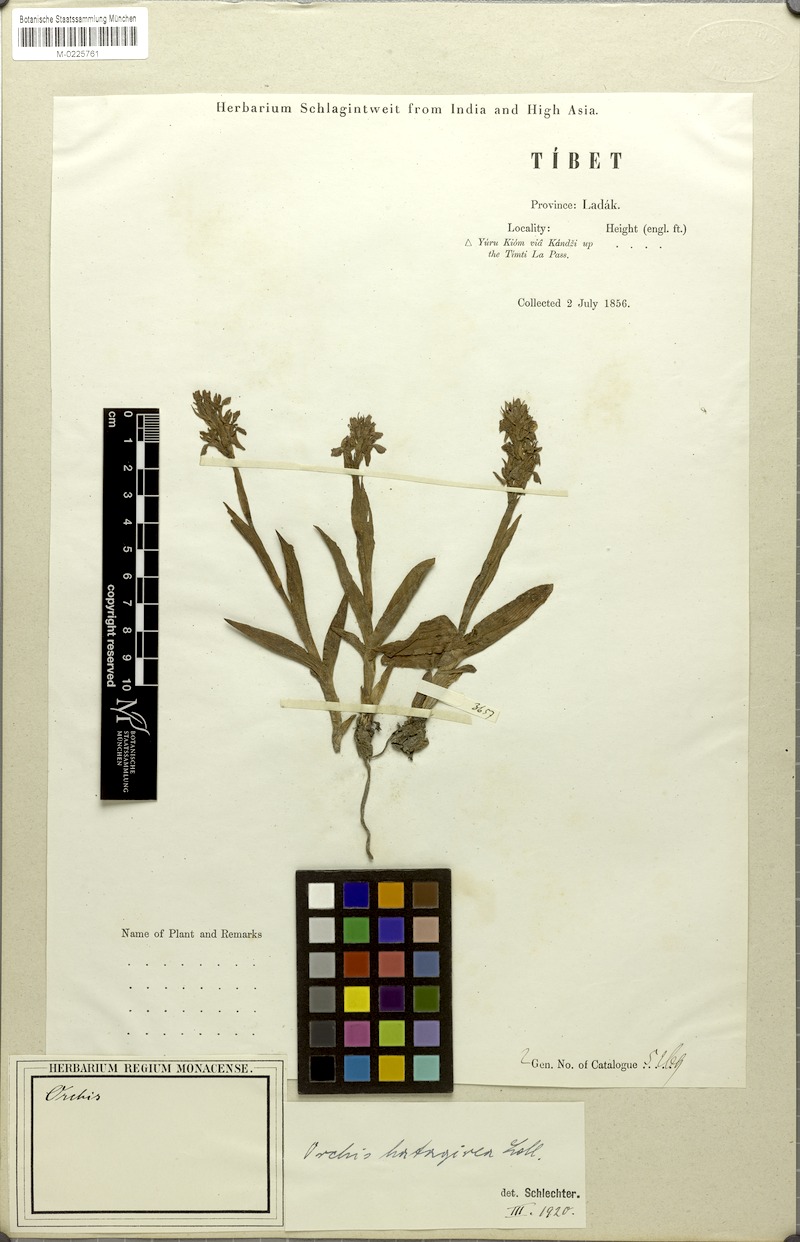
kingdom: Plantae
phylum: Tracheophyta
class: Liliopsida
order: Asparagales
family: Orchidaceae
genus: Dactylorhiza
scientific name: Dactylorhiza hatagirea
